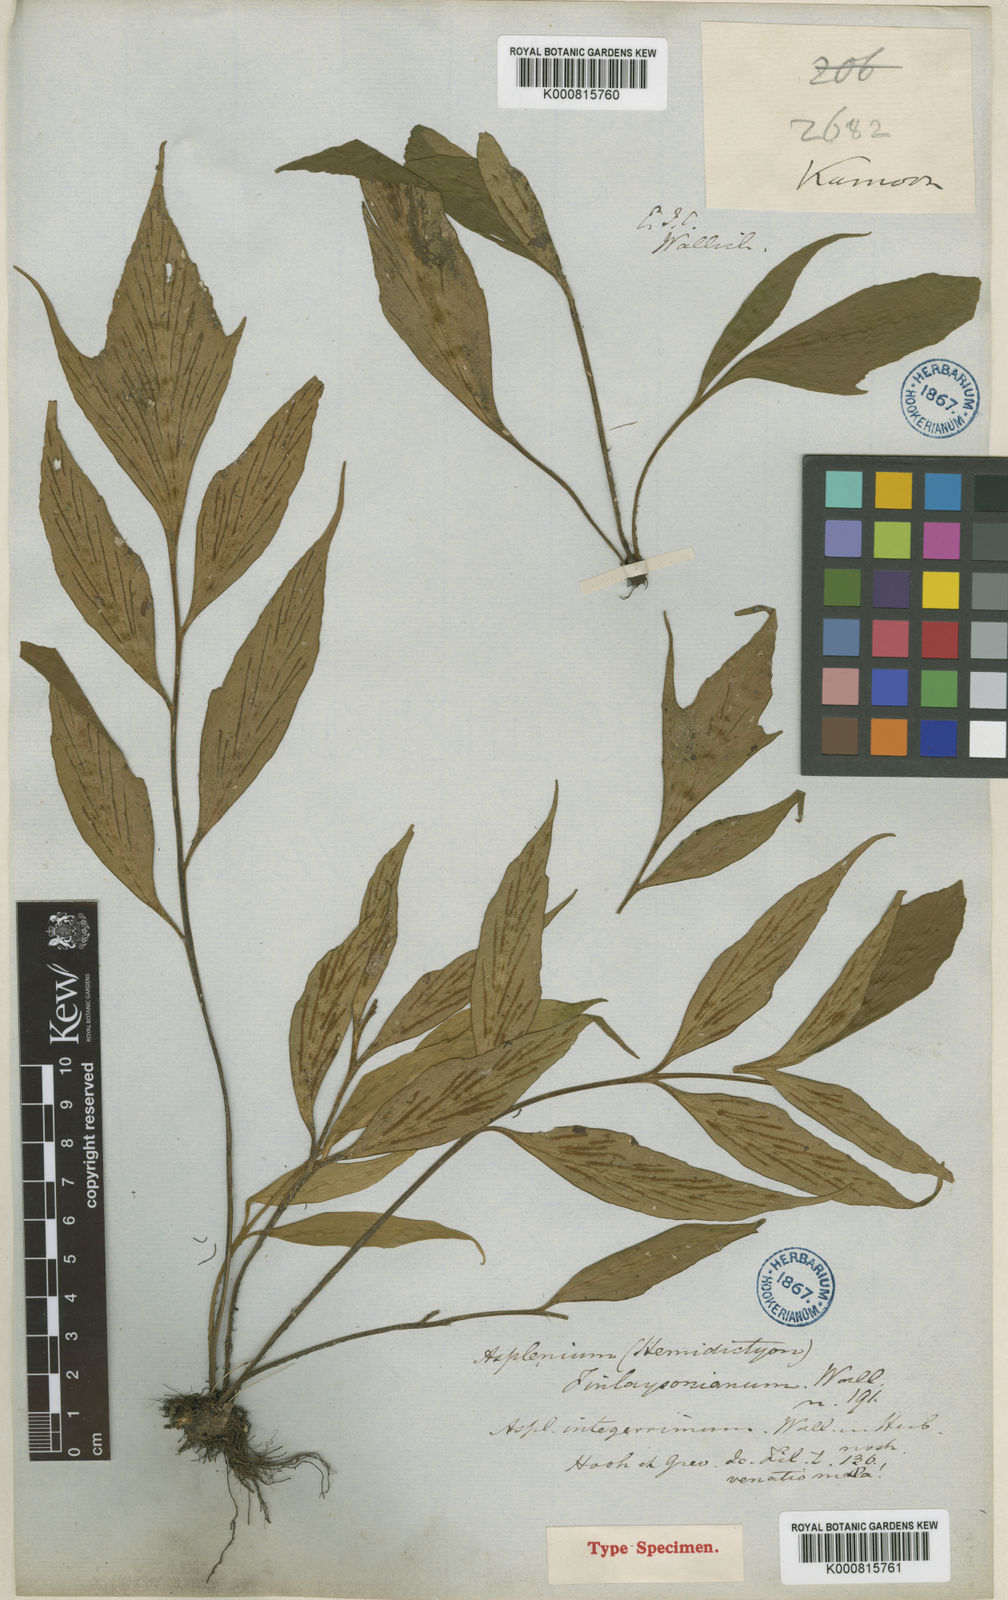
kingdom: Plantae
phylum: Tracheophyta
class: Polypodiopsida
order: Polypodiales
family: Aspleniaceae
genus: Asplenium
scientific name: Asplenium finlaysonianum
